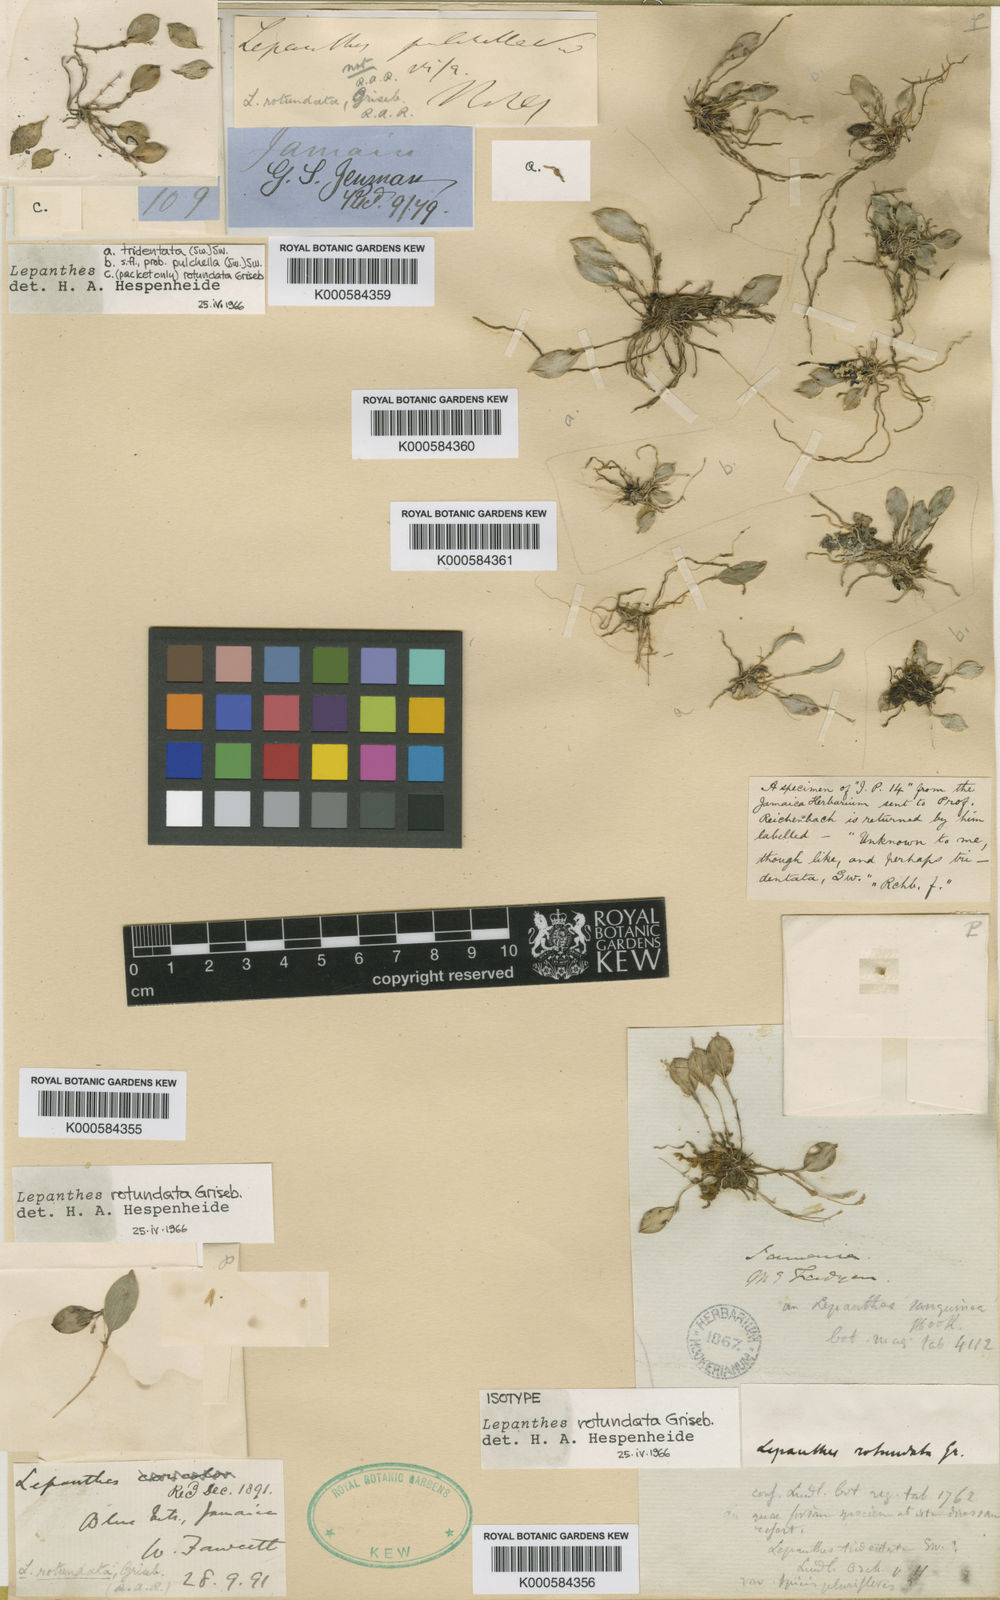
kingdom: Plantae
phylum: Tracheophyta
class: Liliopsida
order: Asparagales
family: Orchidaceae
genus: Lepanthes
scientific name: Lepanthes rotundata
